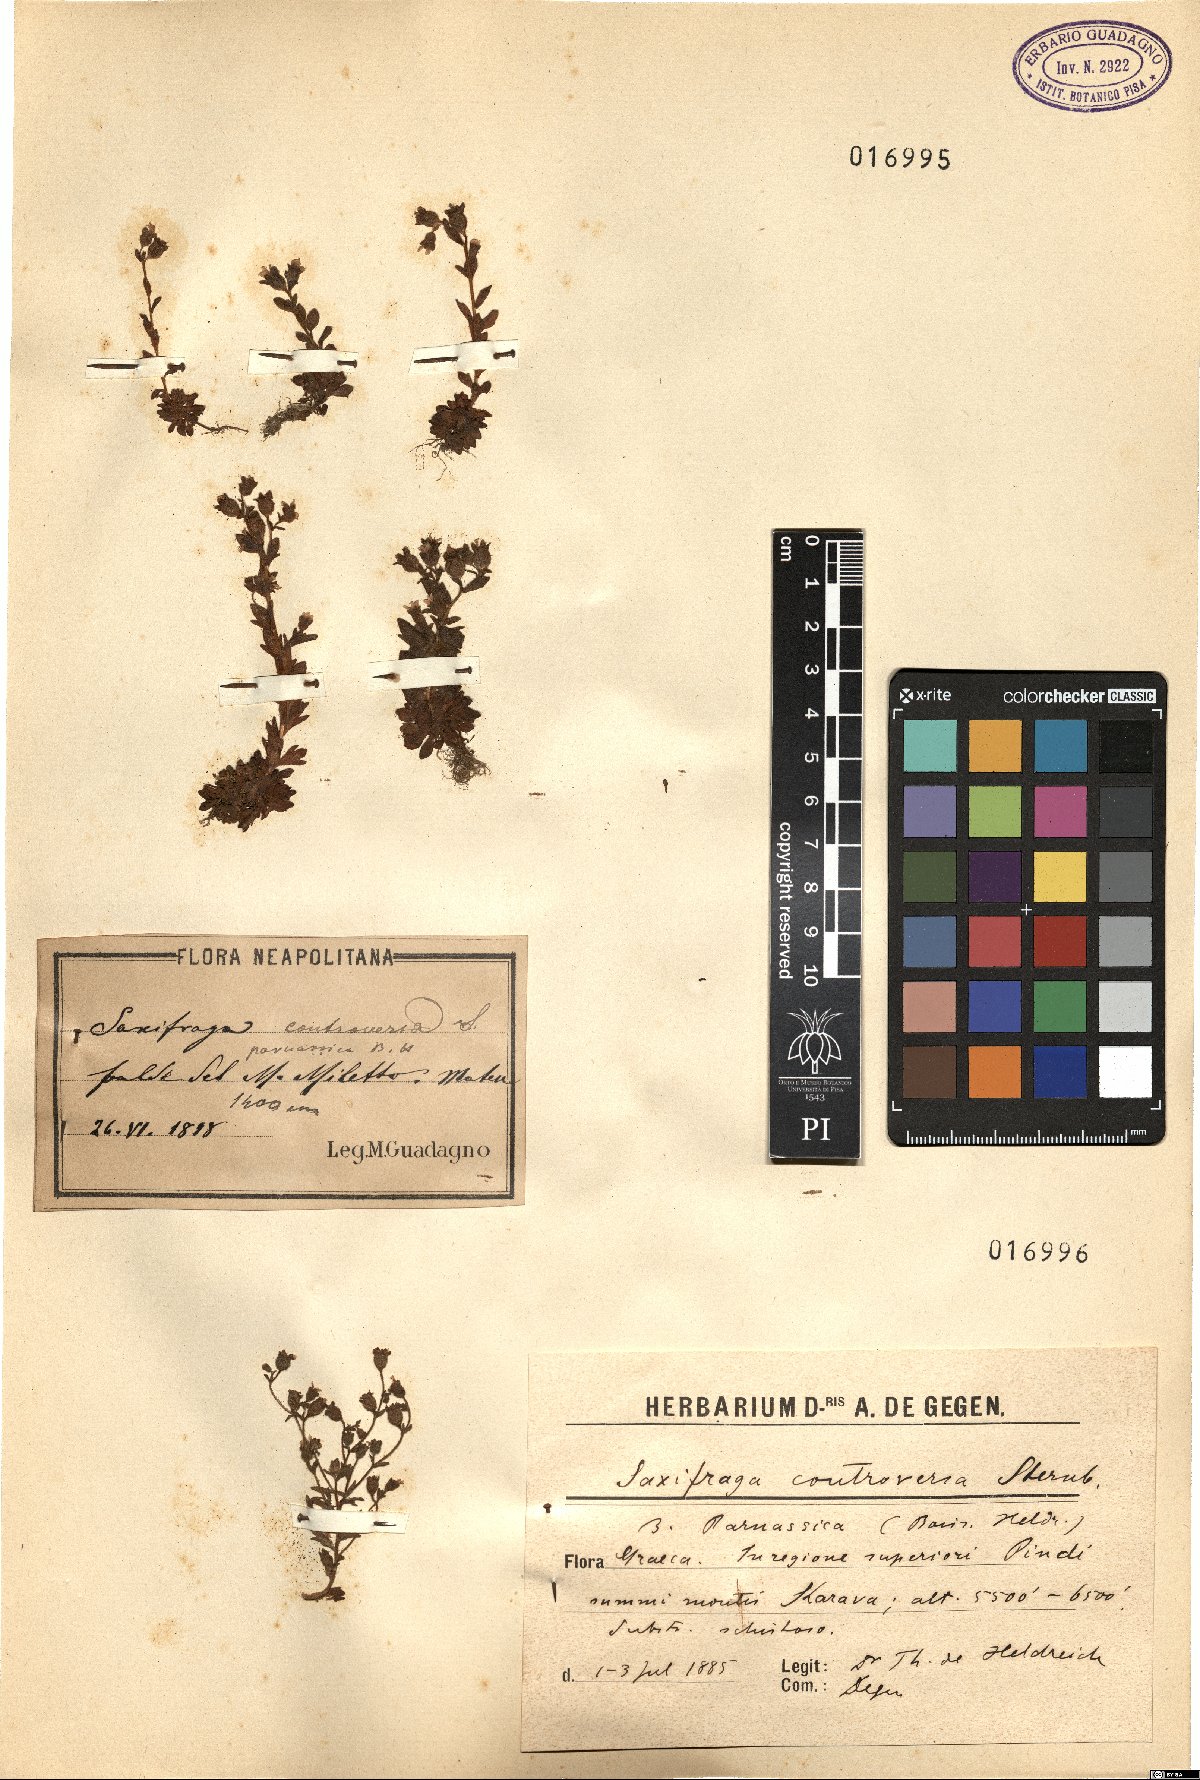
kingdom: Plantae
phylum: Tracheophyta
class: Magnoliopsida
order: Saxifragales
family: Saxifragaceae
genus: Saxifraga
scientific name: Saxifraga
